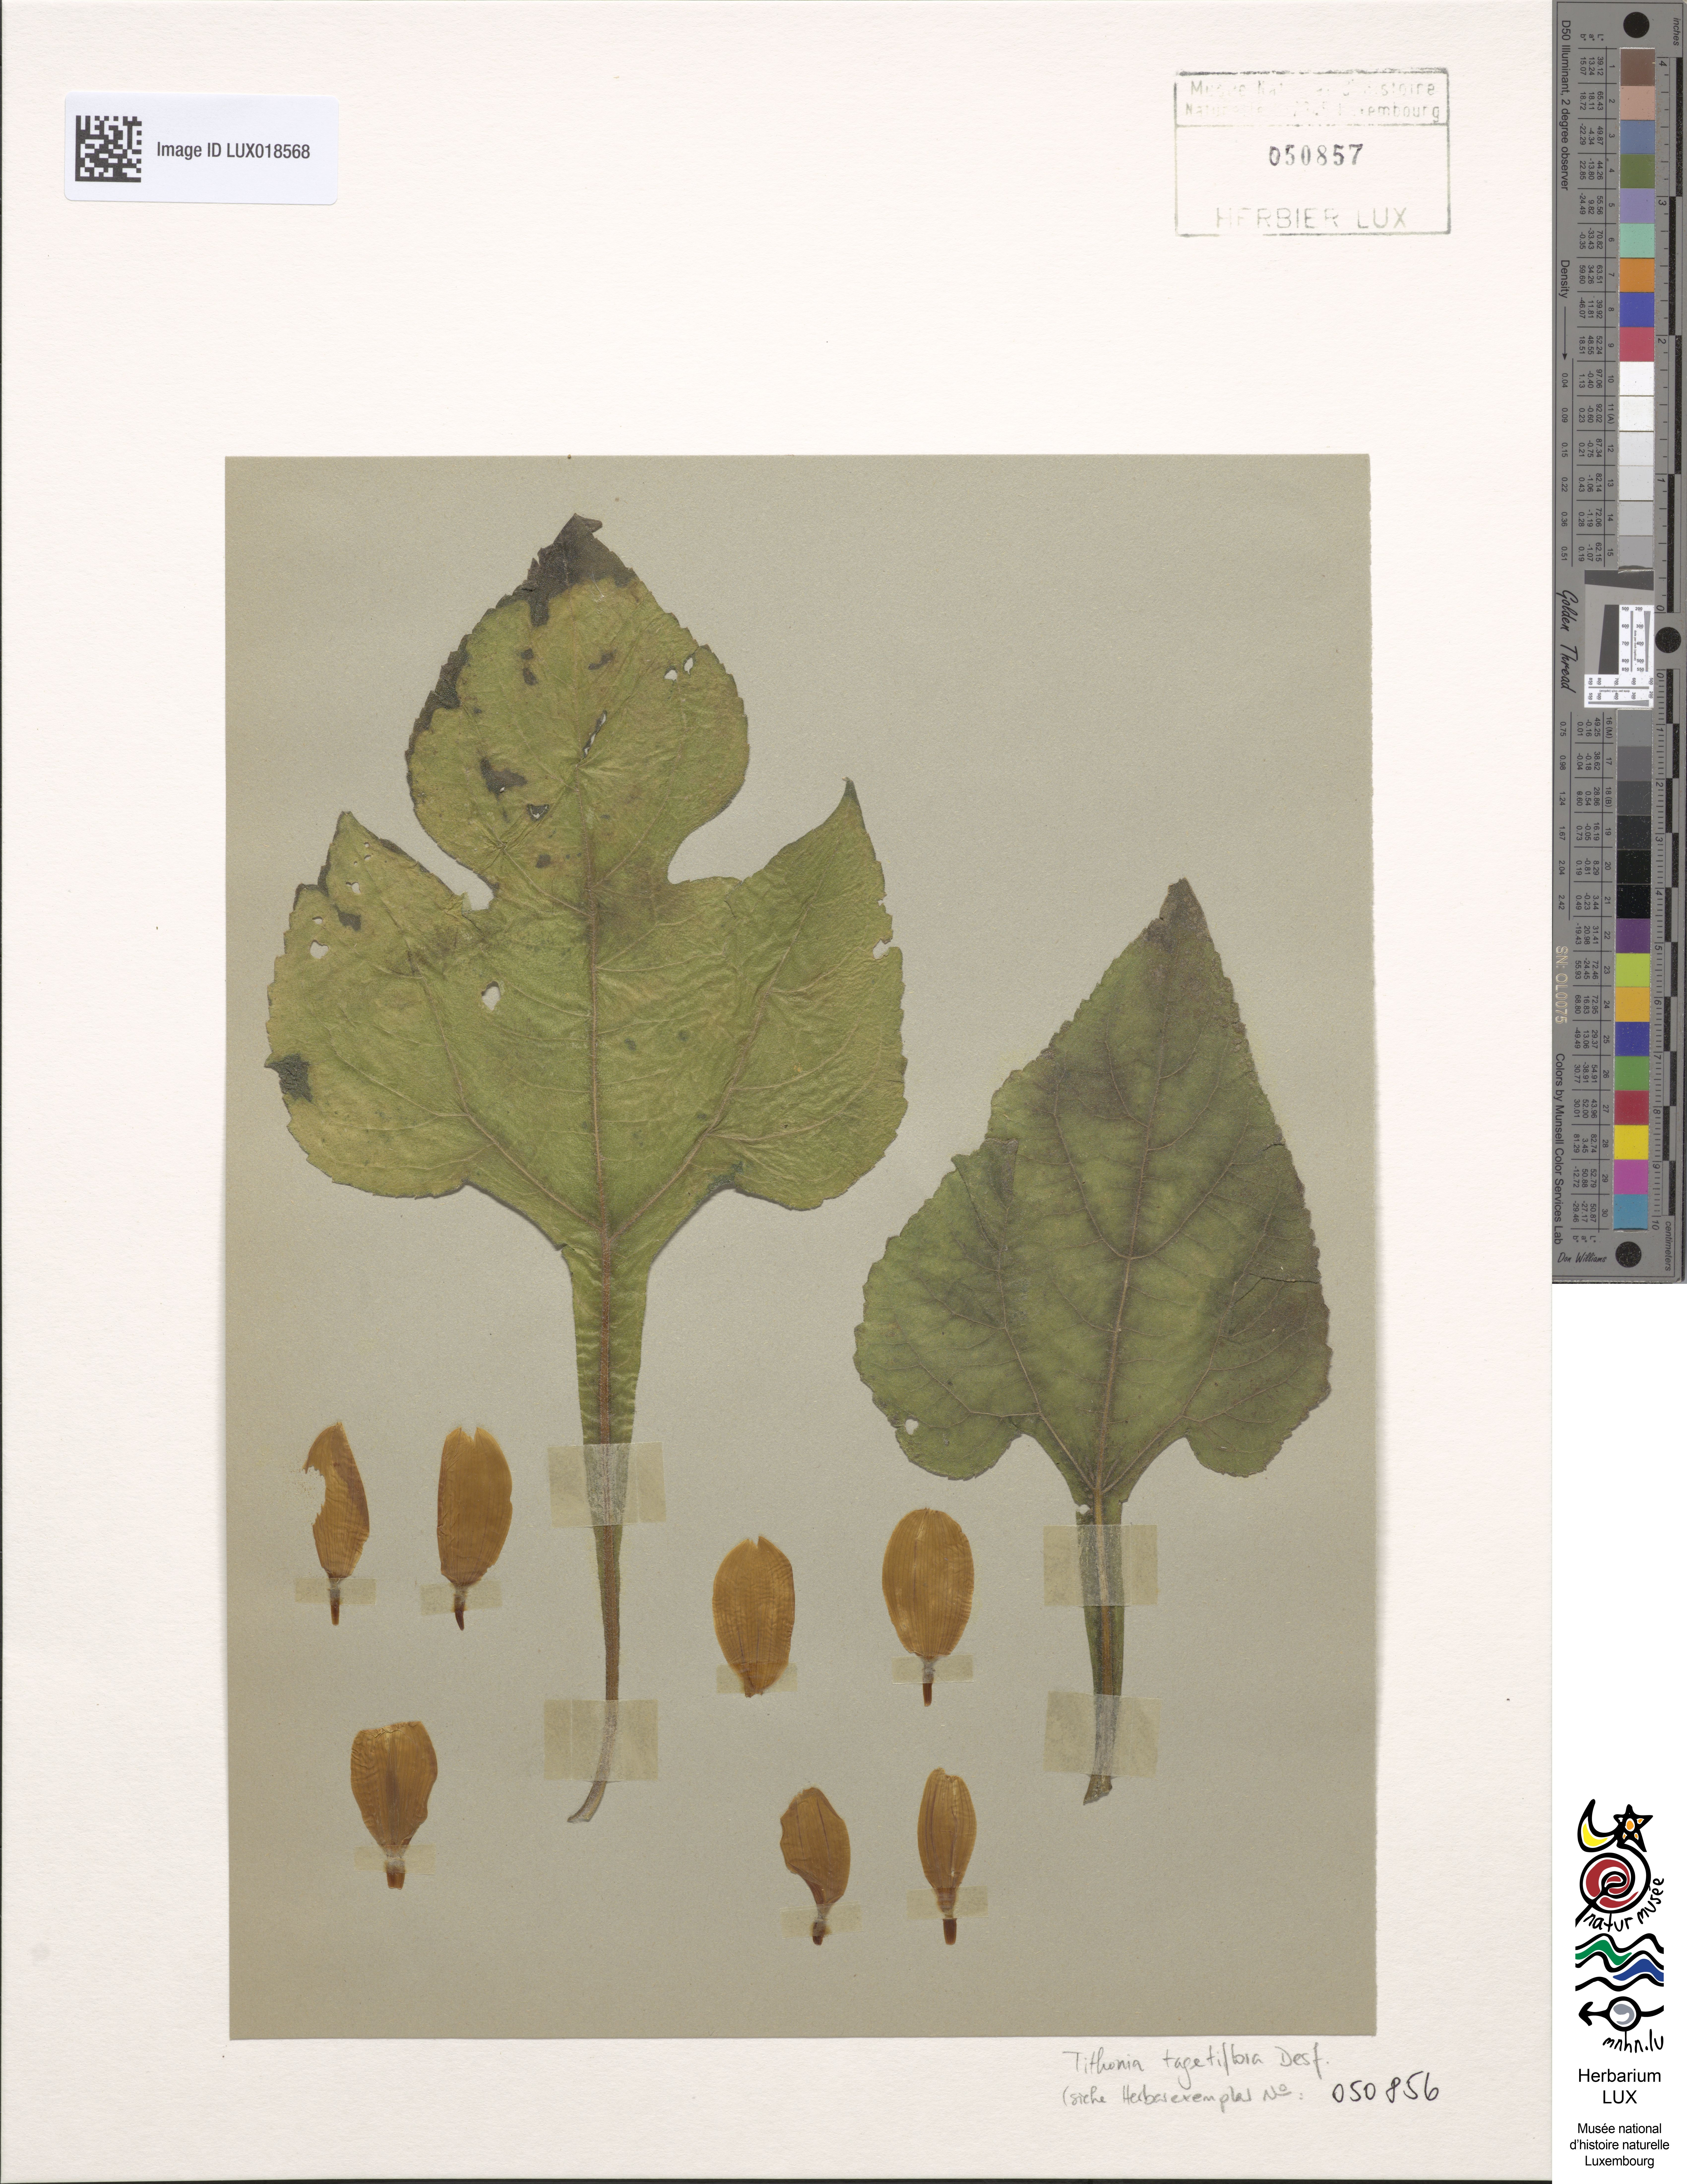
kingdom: Plantae
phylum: Tracheophyta
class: Magnoliopsida
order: Asterales
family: Asteraceae
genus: Tithonia
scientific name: Tithonia rotundifolia
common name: Sunflower
